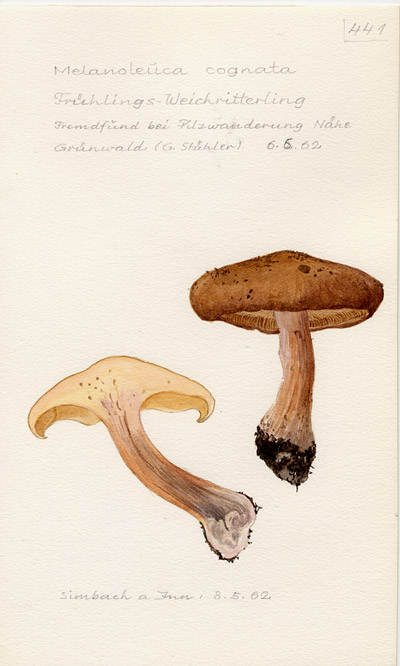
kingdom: Fungi
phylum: Basidiomycota
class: Agaricomycetes
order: Agaricales
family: Tricholomataceae
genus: Melanoleuca
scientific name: Melanoleuca cognata
